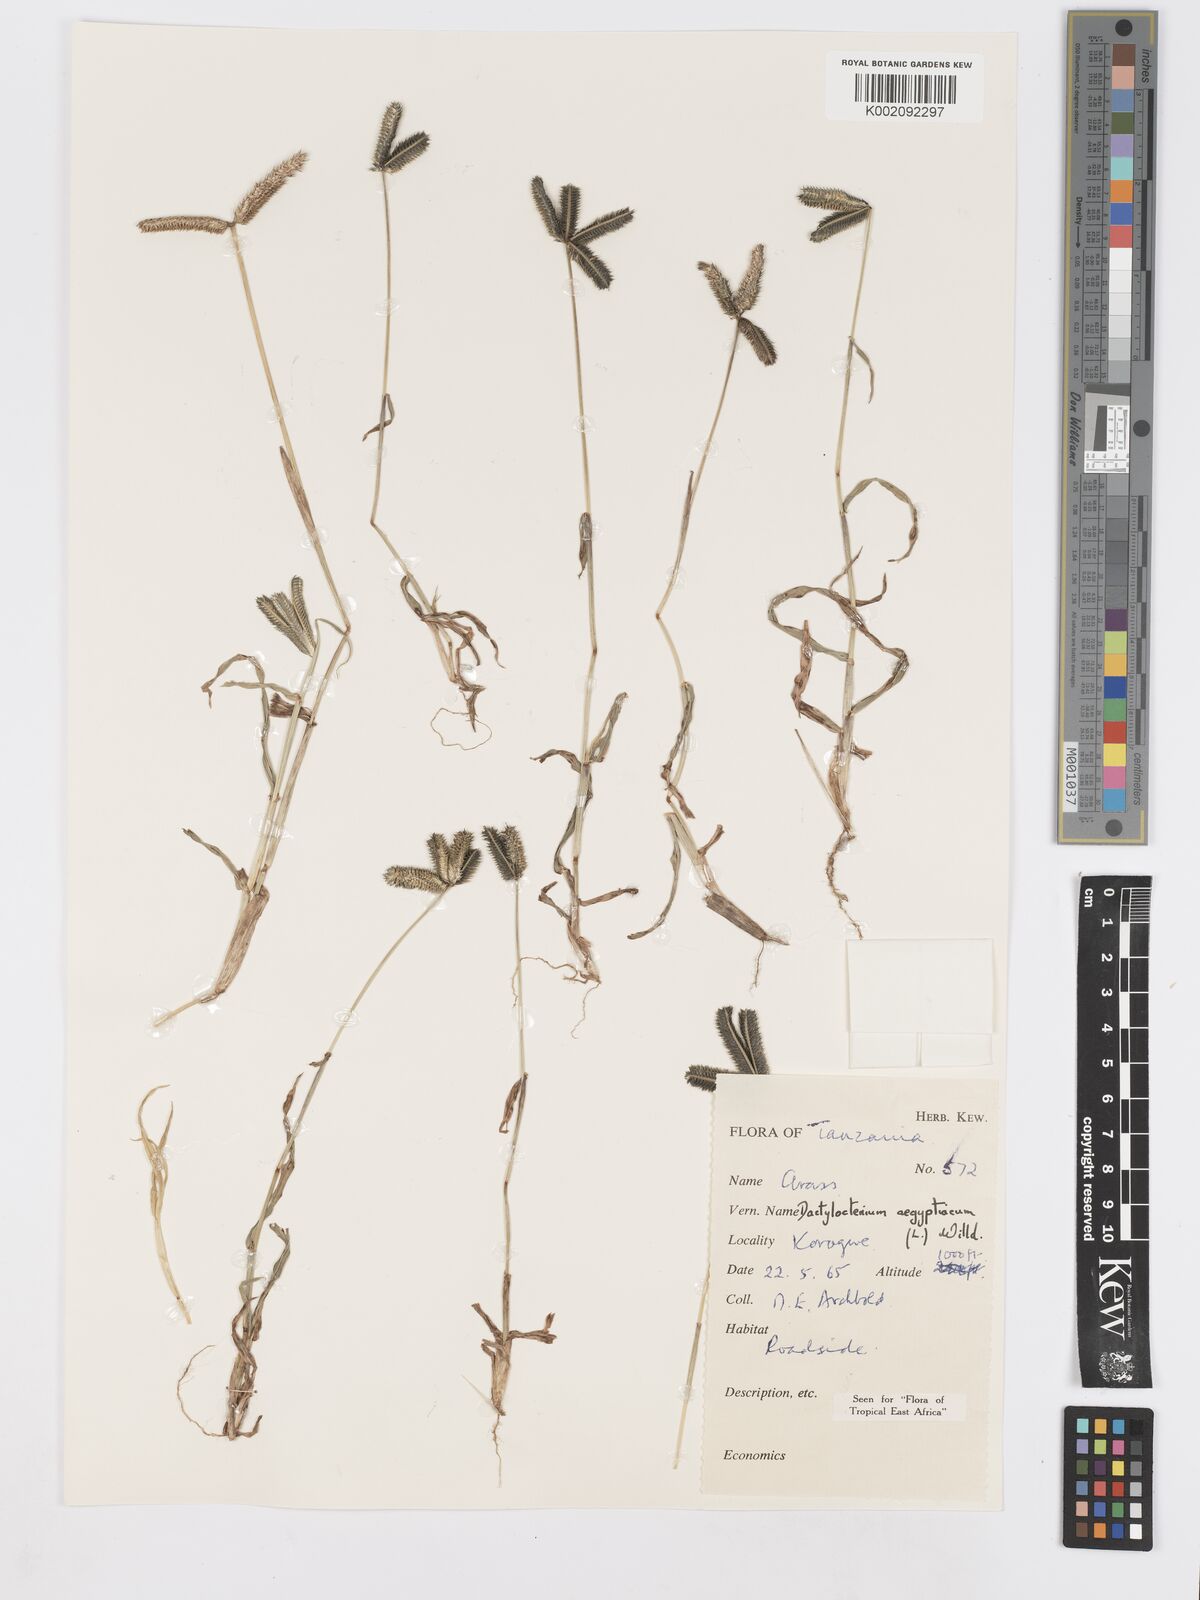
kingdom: Plantae
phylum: Tracheophyta
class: Liliopsida
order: Poales
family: Poaceae
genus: Dactyloctenium
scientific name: Dactyloctenium aegyptium
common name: Egyptian grass
